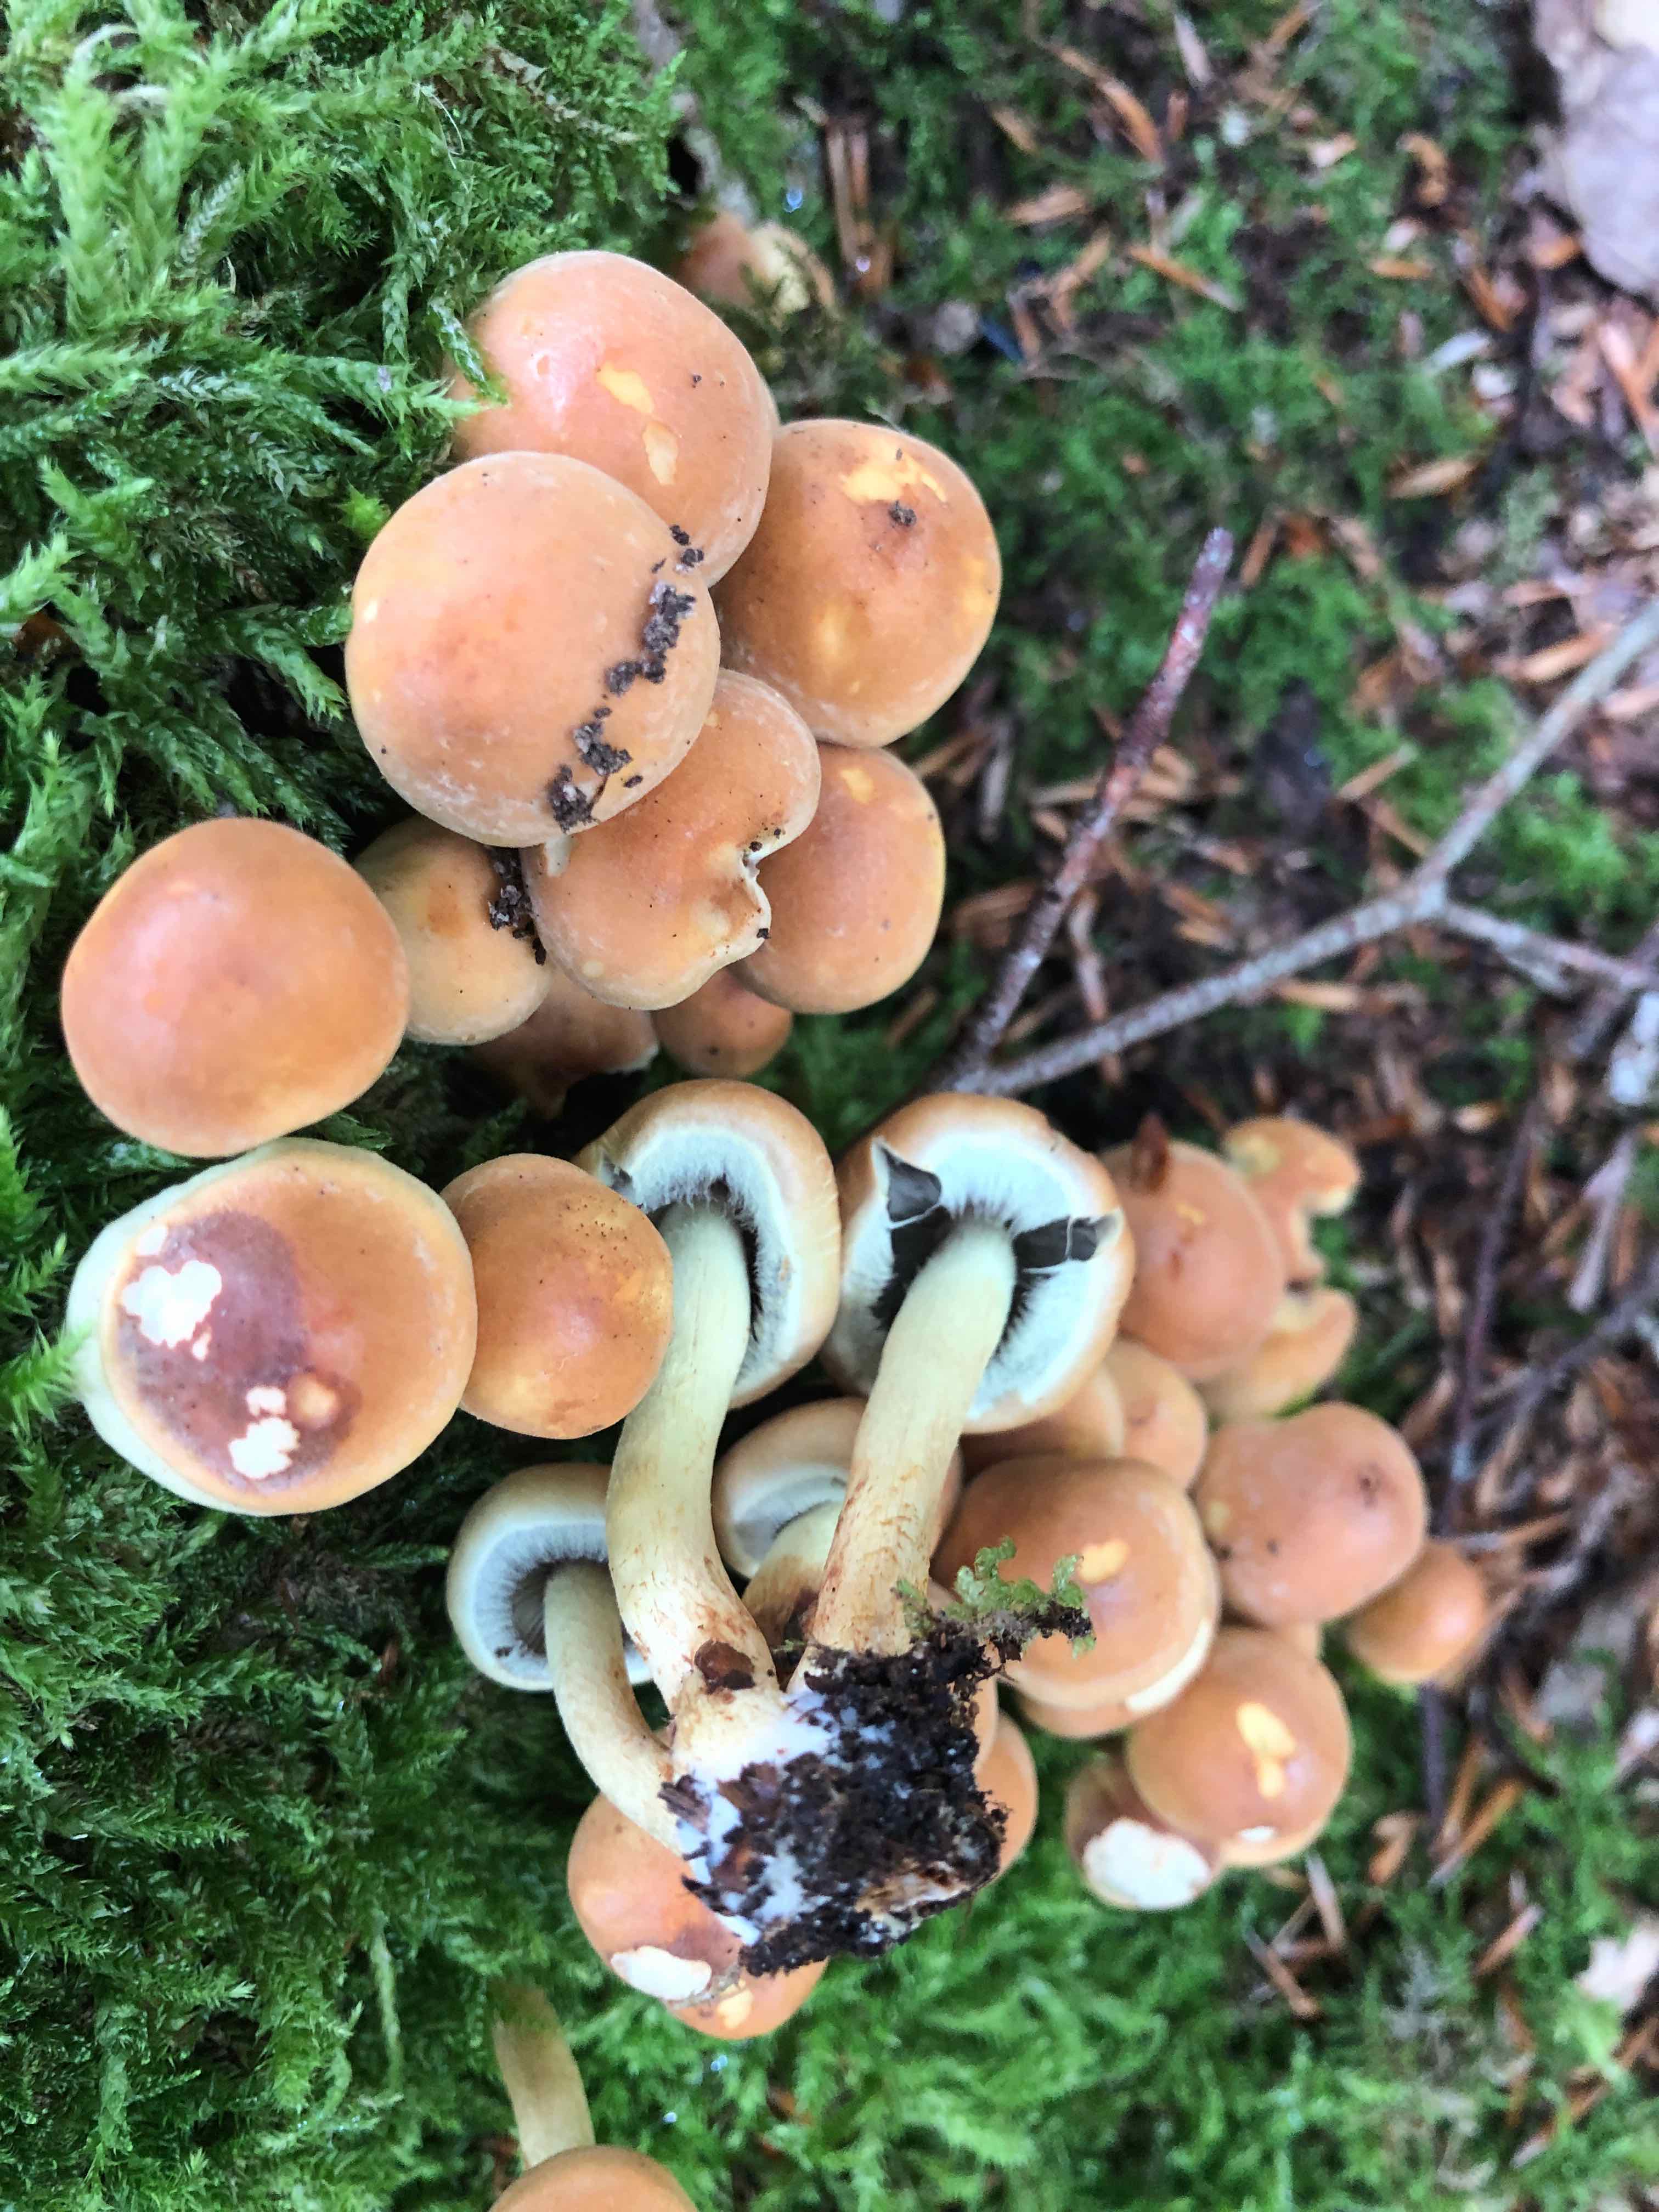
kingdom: Fungi
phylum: Basidiomycota
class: Agaricomycetes
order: Agaricales
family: Strophariaceae
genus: Hypholoma
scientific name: Hypholoma fasciculare
